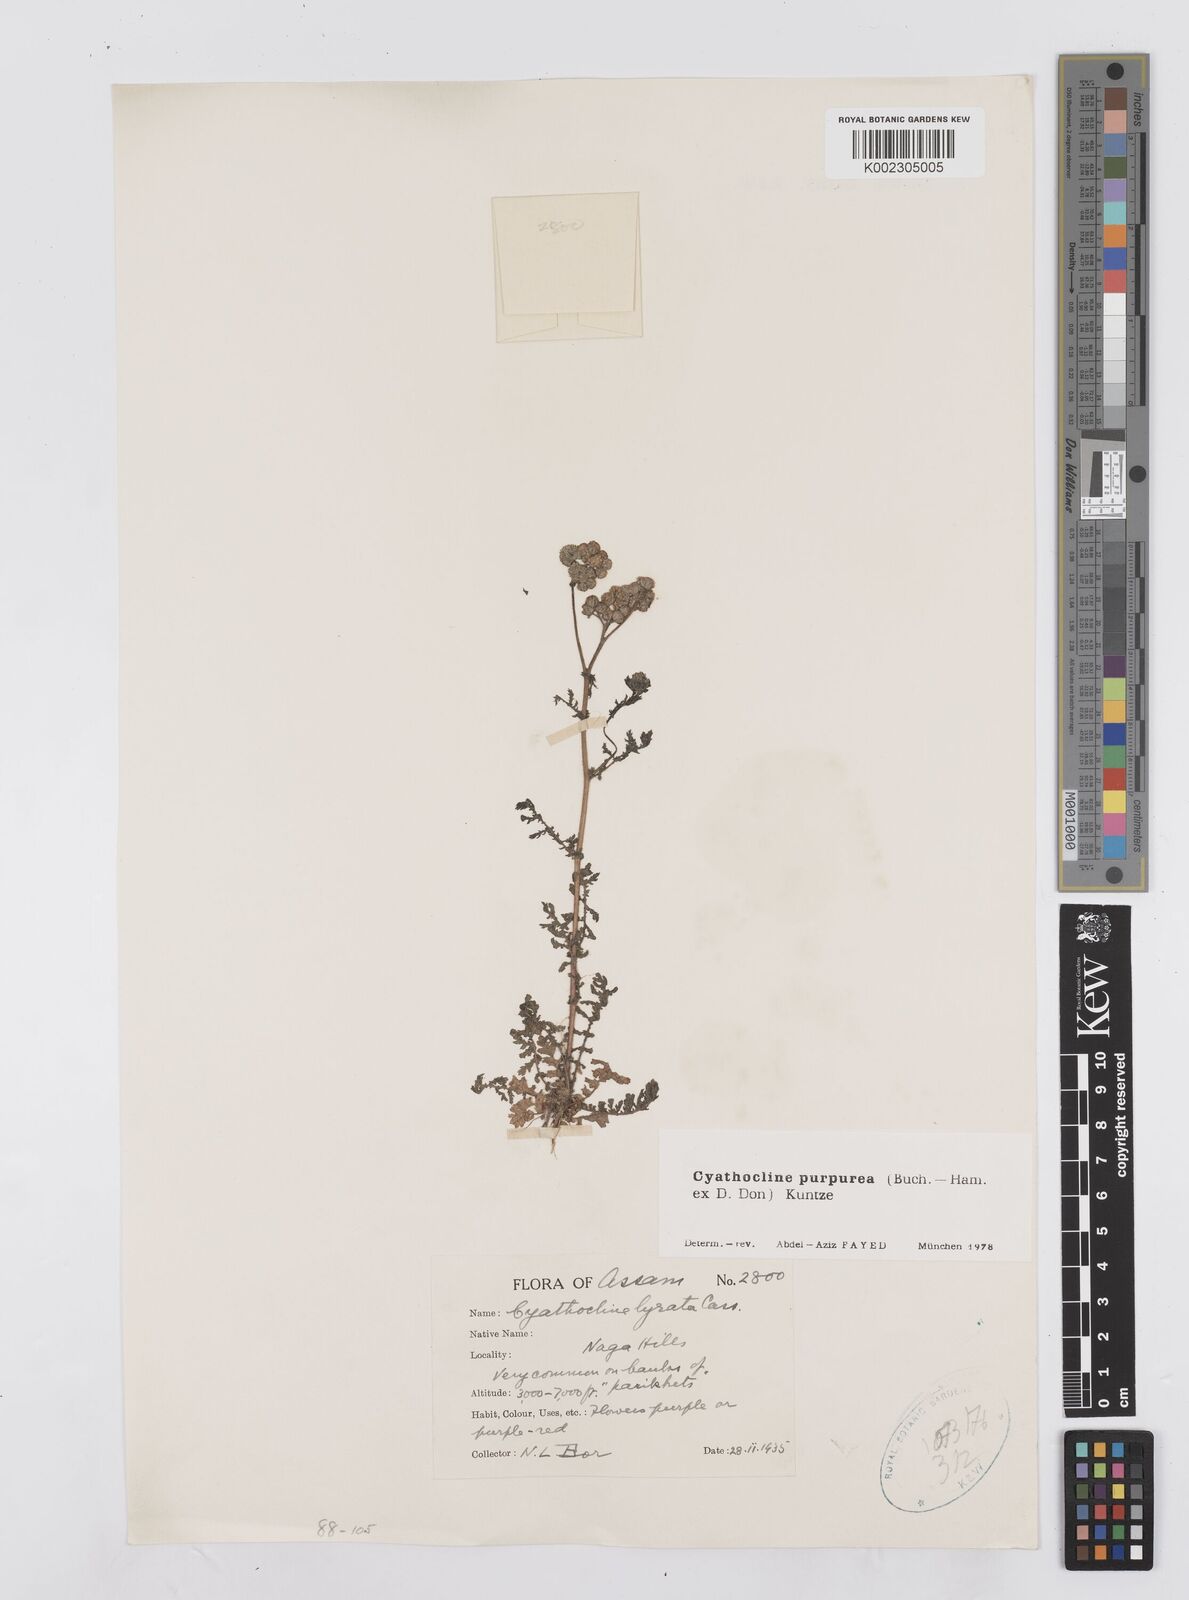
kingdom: Plantae
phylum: Tracheophyta
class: Magnoliopsida
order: Asterales
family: Asteraceae
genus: Cyathocline
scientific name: Cyathocline purpurea
